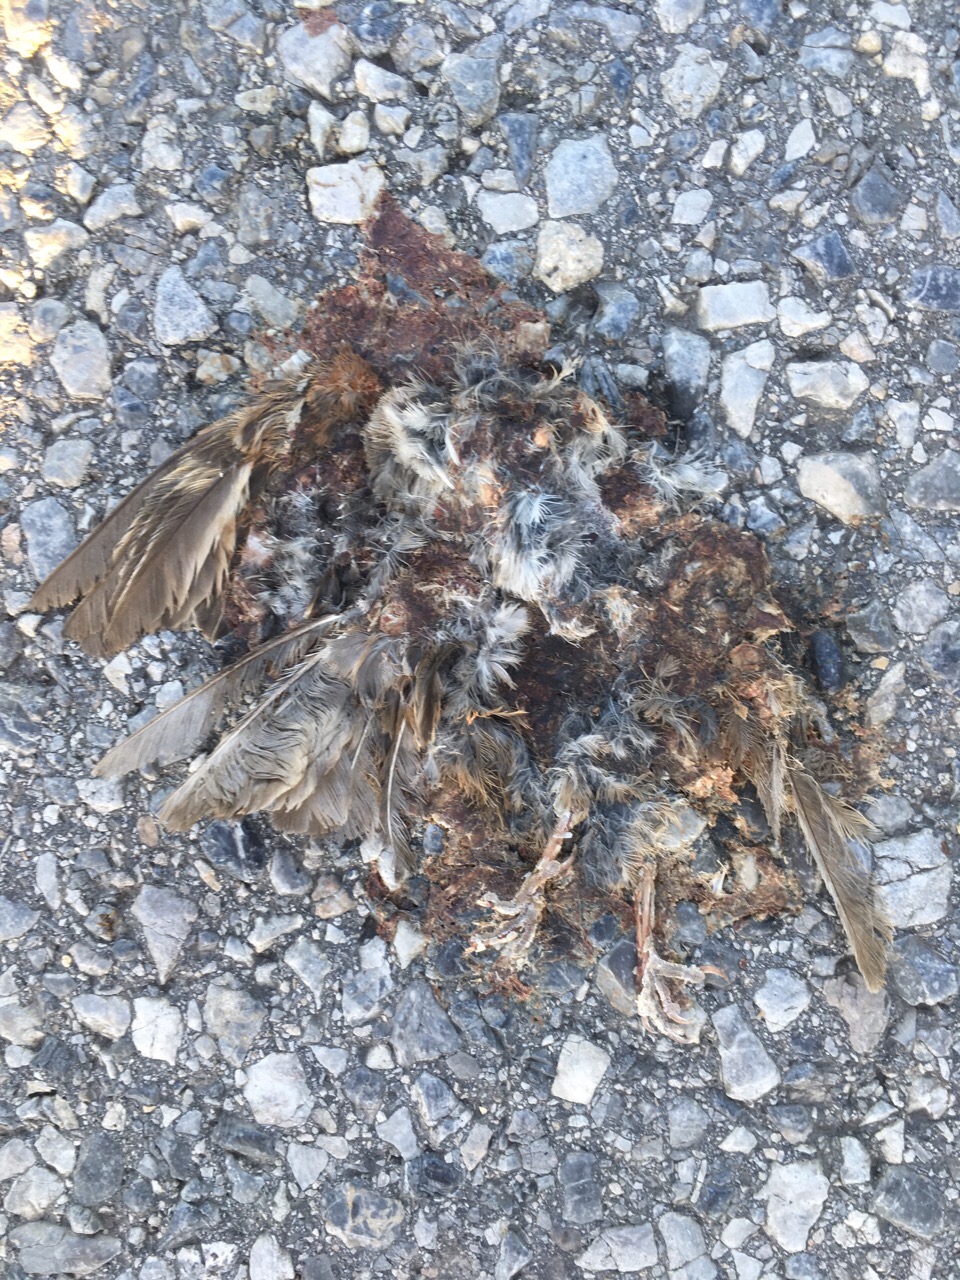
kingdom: Animalia
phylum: Chordata
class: Aves
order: Passeriformes
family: Passeridae
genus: Passer
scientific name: Passer montanus
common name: Eurasian tree sparrow
